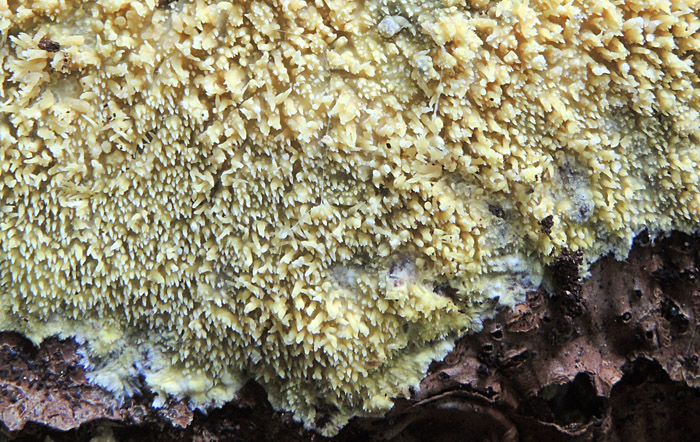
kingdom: Fungi
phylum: Basidiomycota
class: Agaricomycetes
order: Polyporales
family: Meruliaceae
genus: Mycoacia
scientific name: Mycoacia uda
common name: citrongul vokspig
